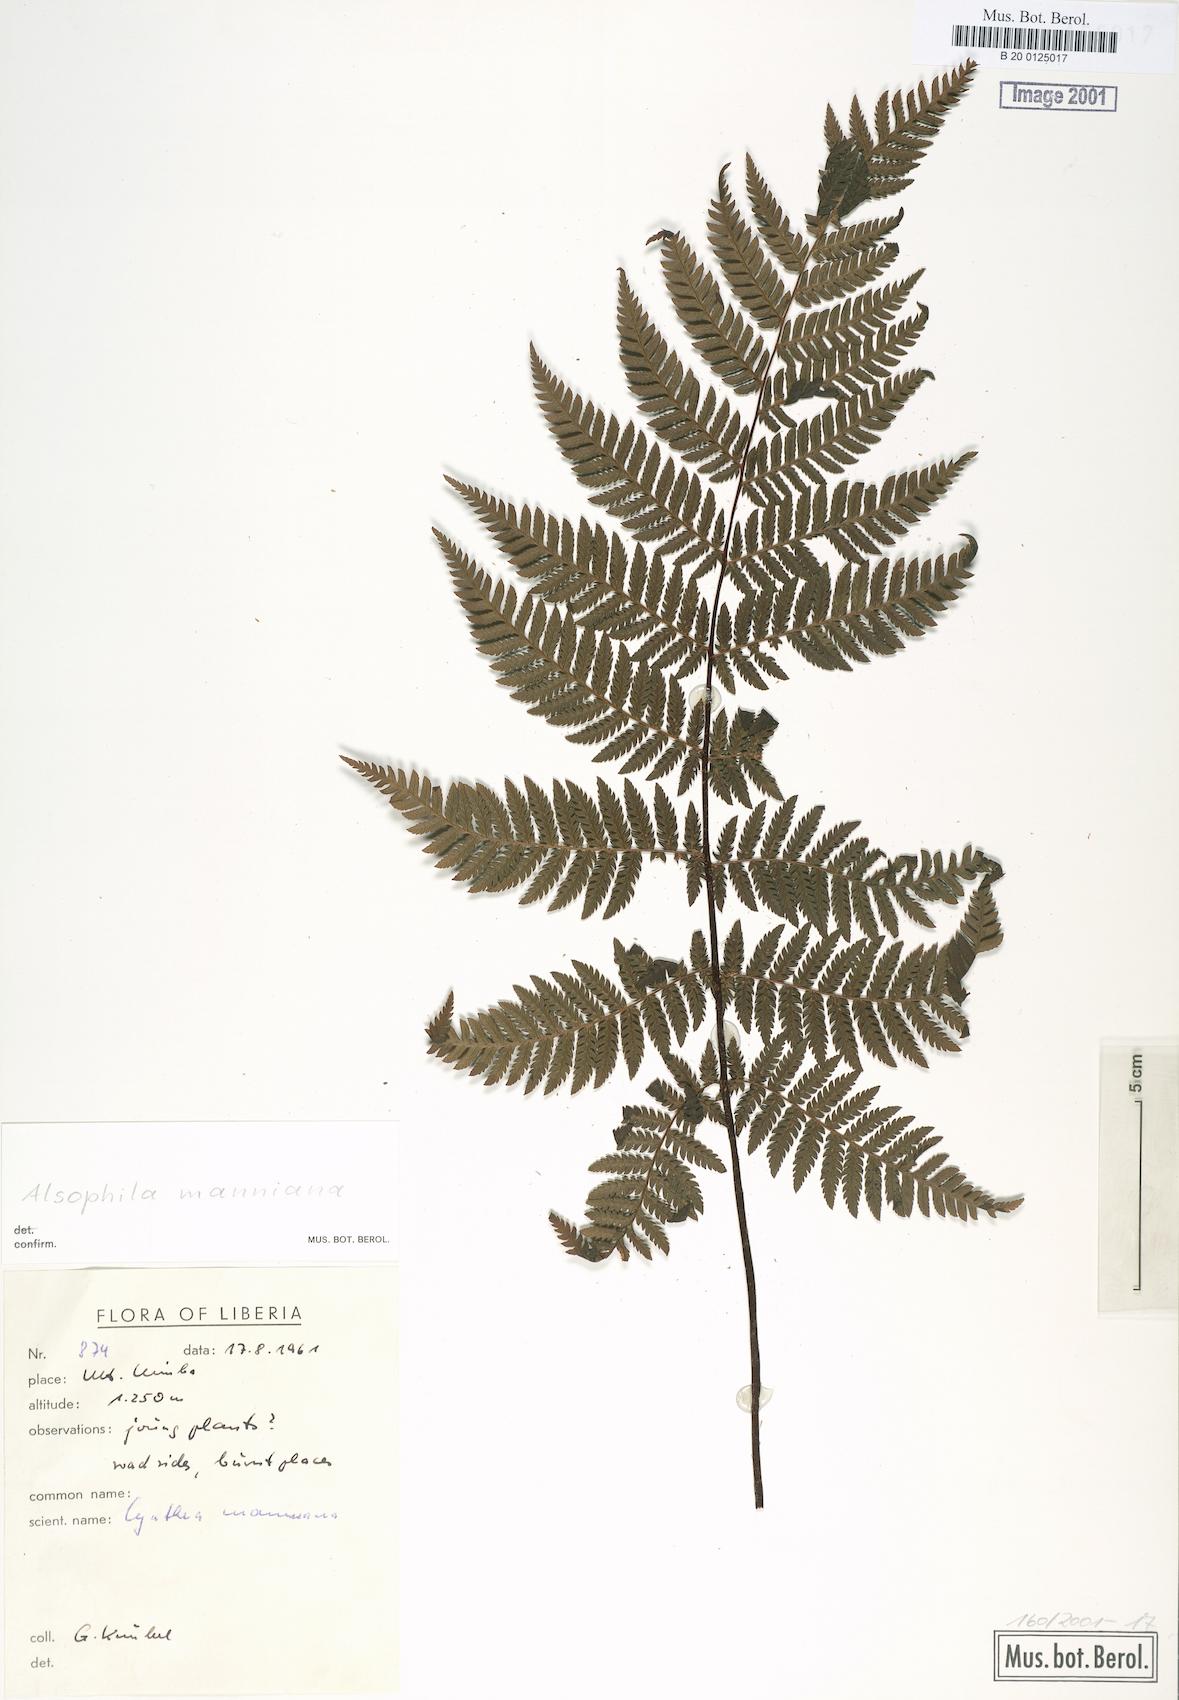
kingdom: Plantae
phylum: Tracheophyta
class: Polypodiopsida
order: Cyatheales
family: Cyatheaceae
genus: Alsophila
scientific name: Alsophila manniana
